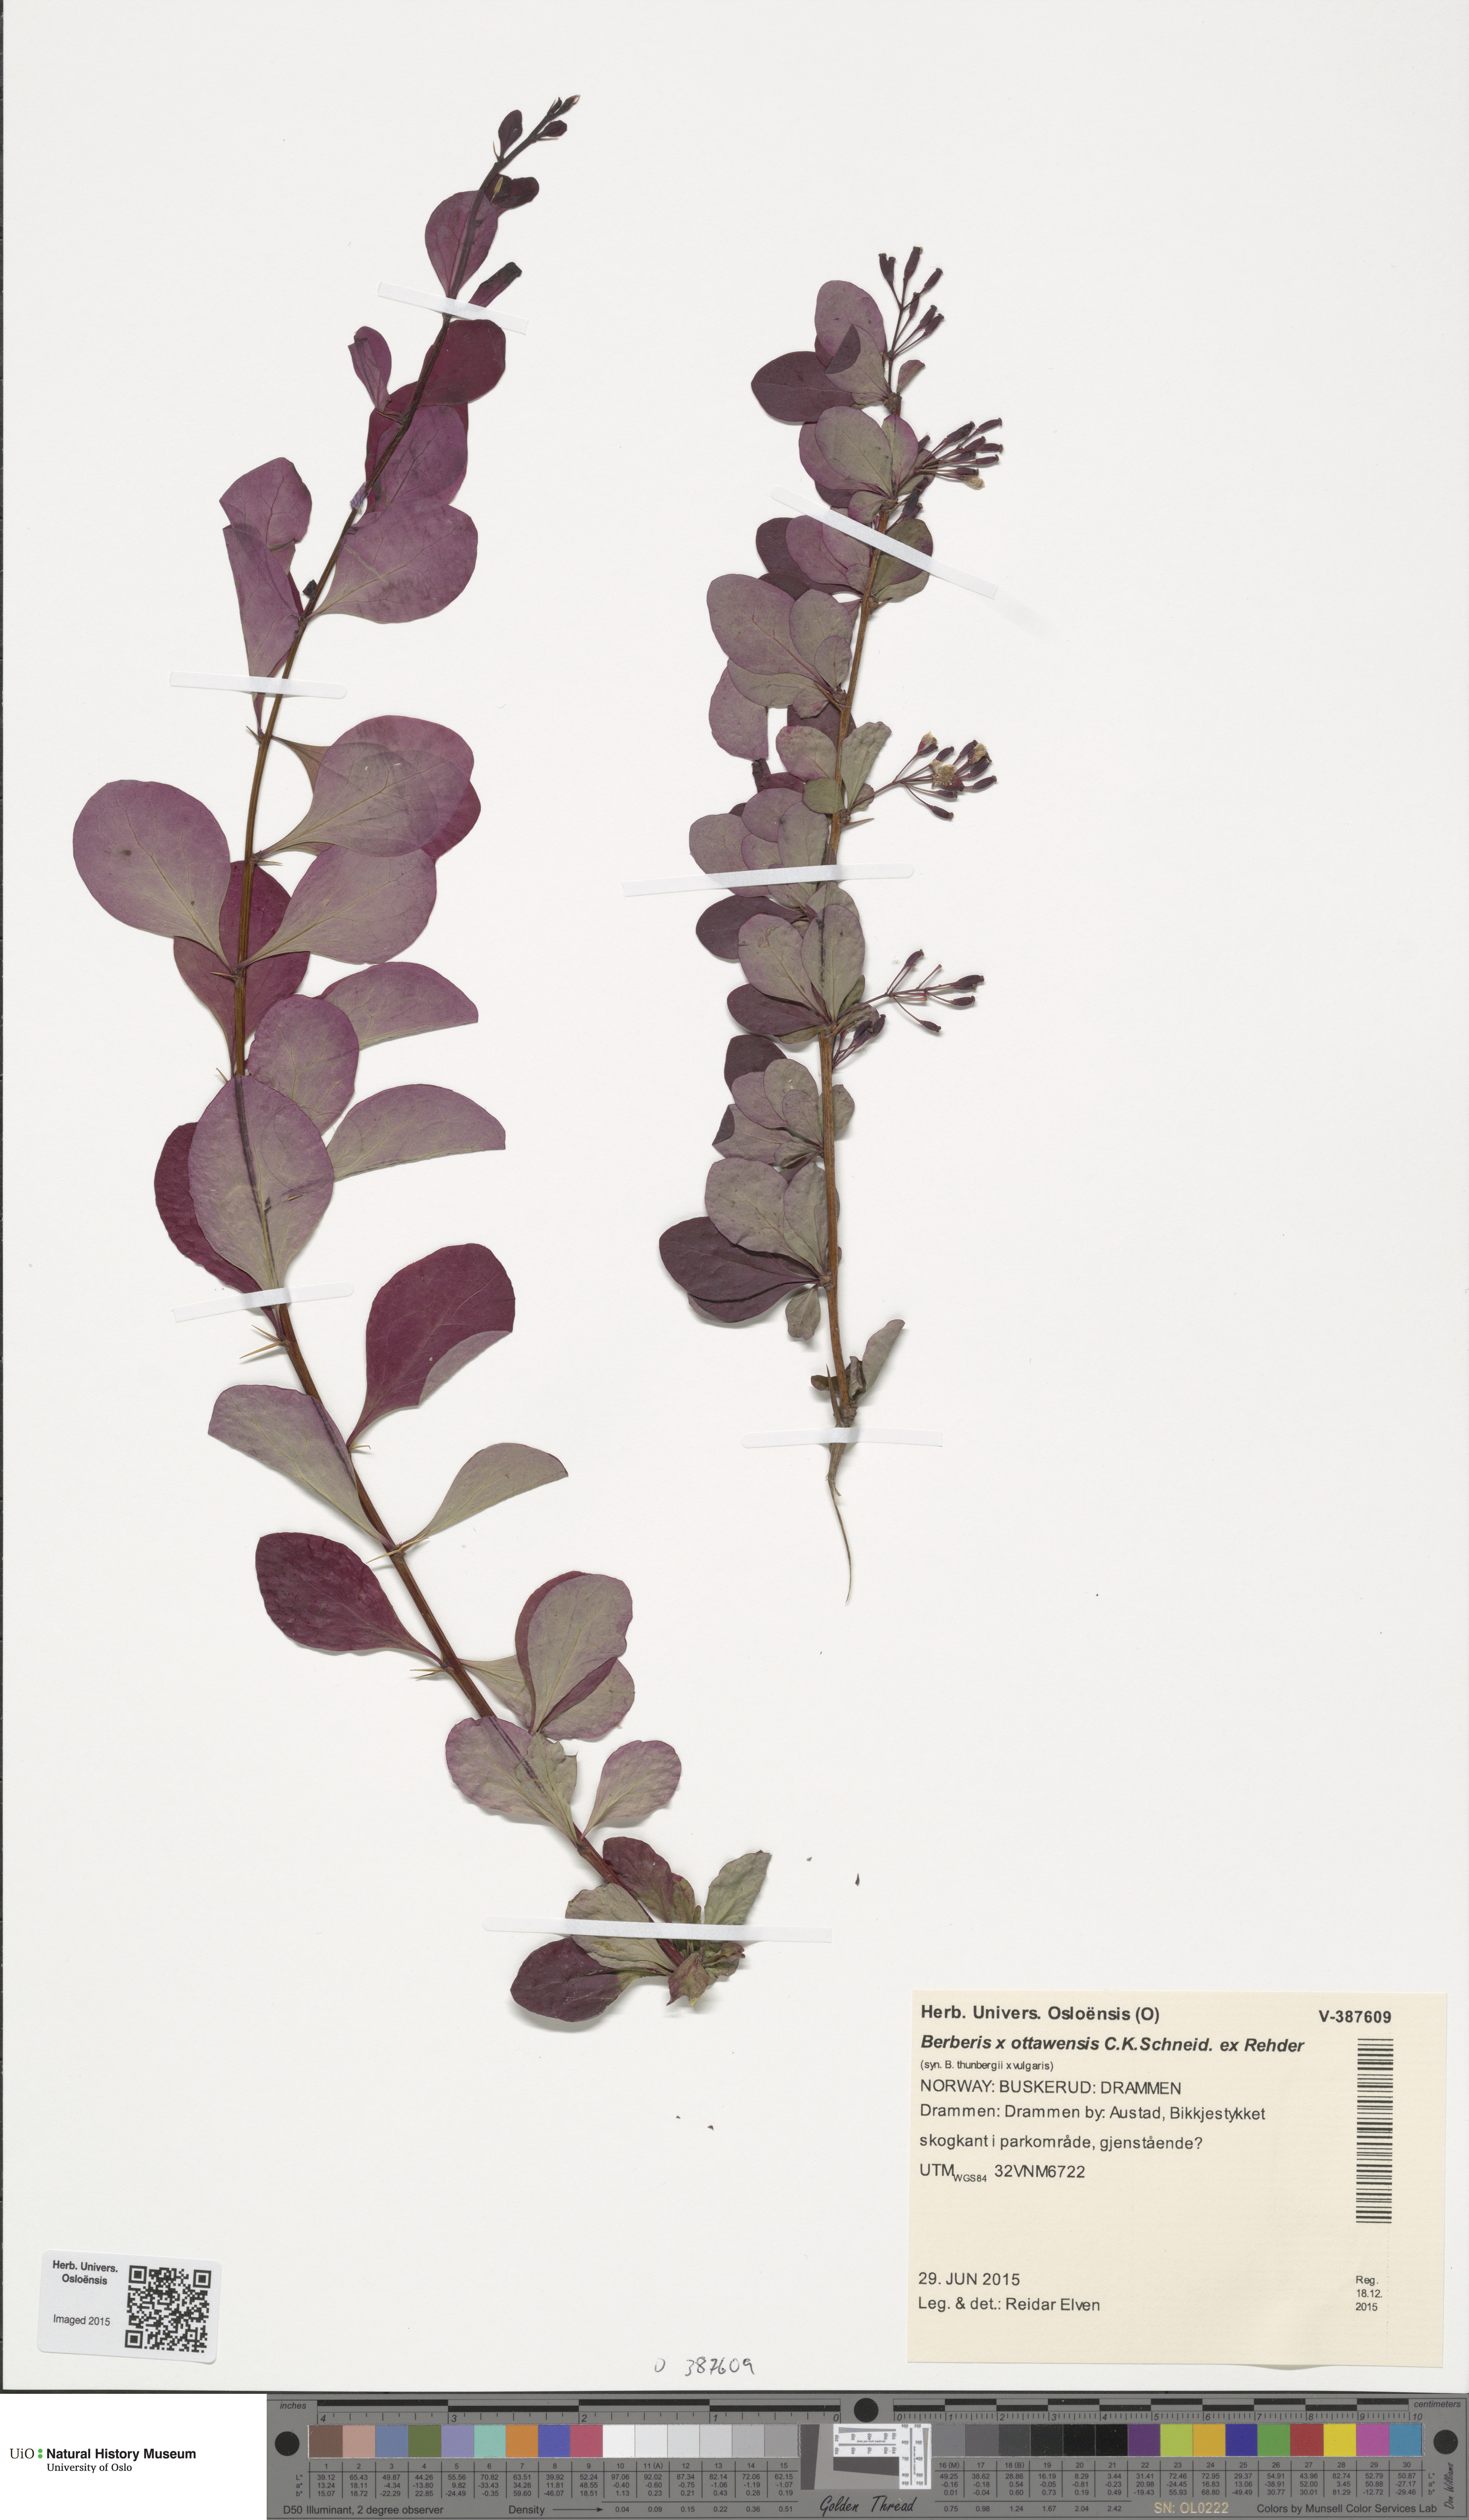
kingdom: Plantae
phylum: Tracheophyta
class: Magnoliopsida
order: Ranunculales
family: Berberidaceae
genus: Berberis
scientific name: Berberis ottawensis
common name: Ottawa barberry
